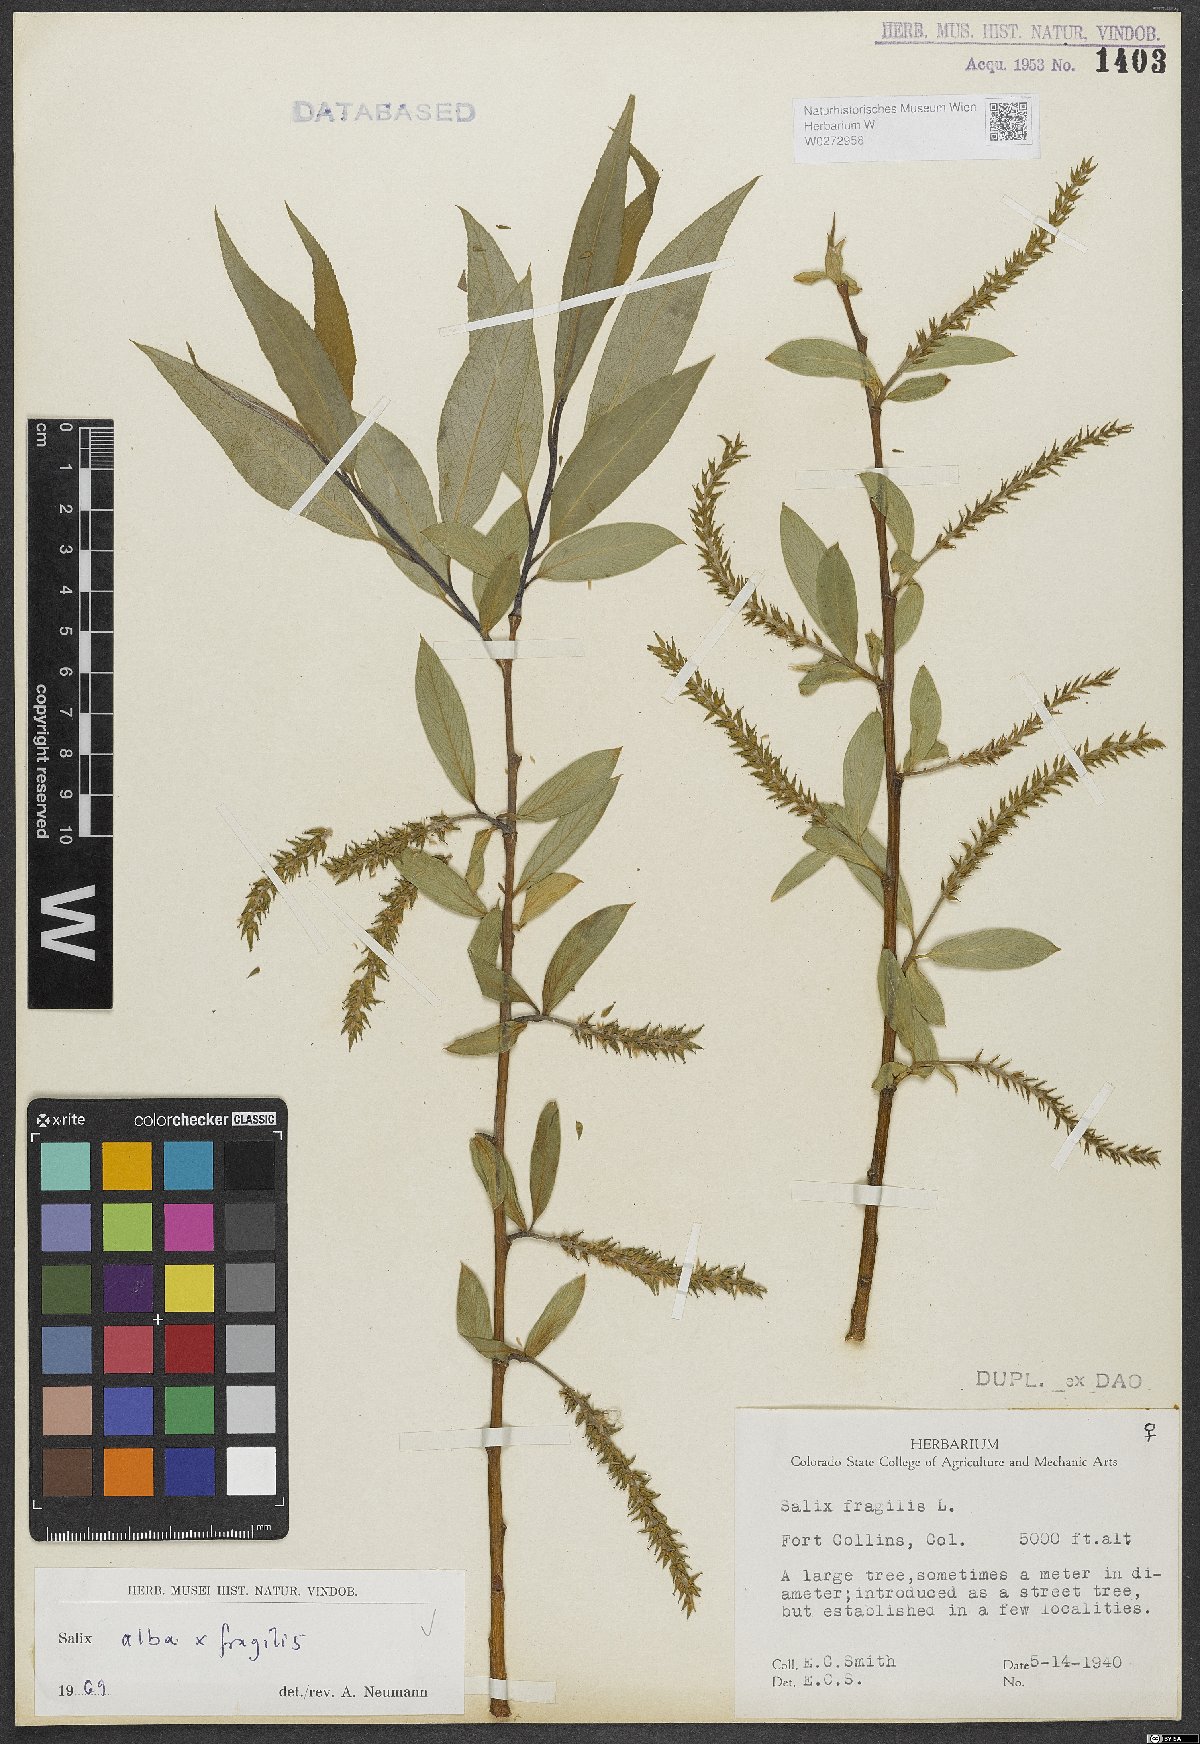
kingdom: Plantae
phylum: Tracheophyta
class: Magnoliopsida
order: Malpighiales
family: Salicaceae
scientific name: Salicaceae
